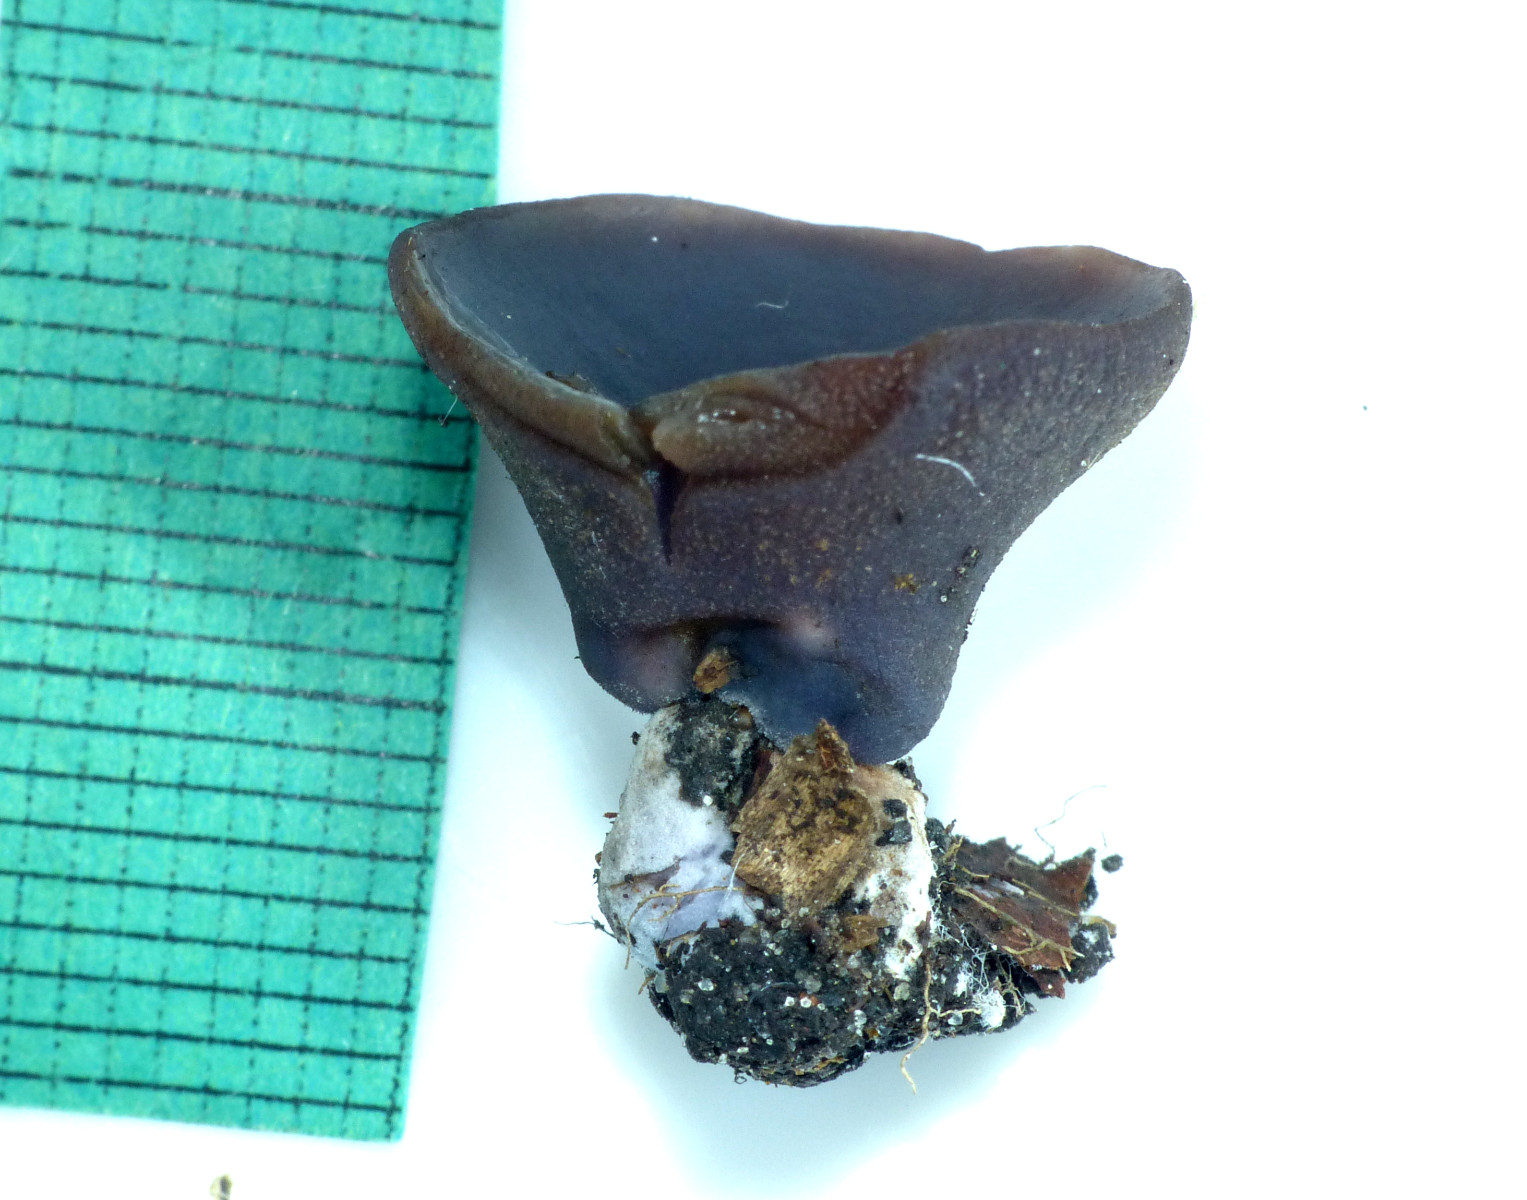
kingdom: Fungi
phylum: Ascomycota
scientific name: Ascomycota
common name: sæksvampe
